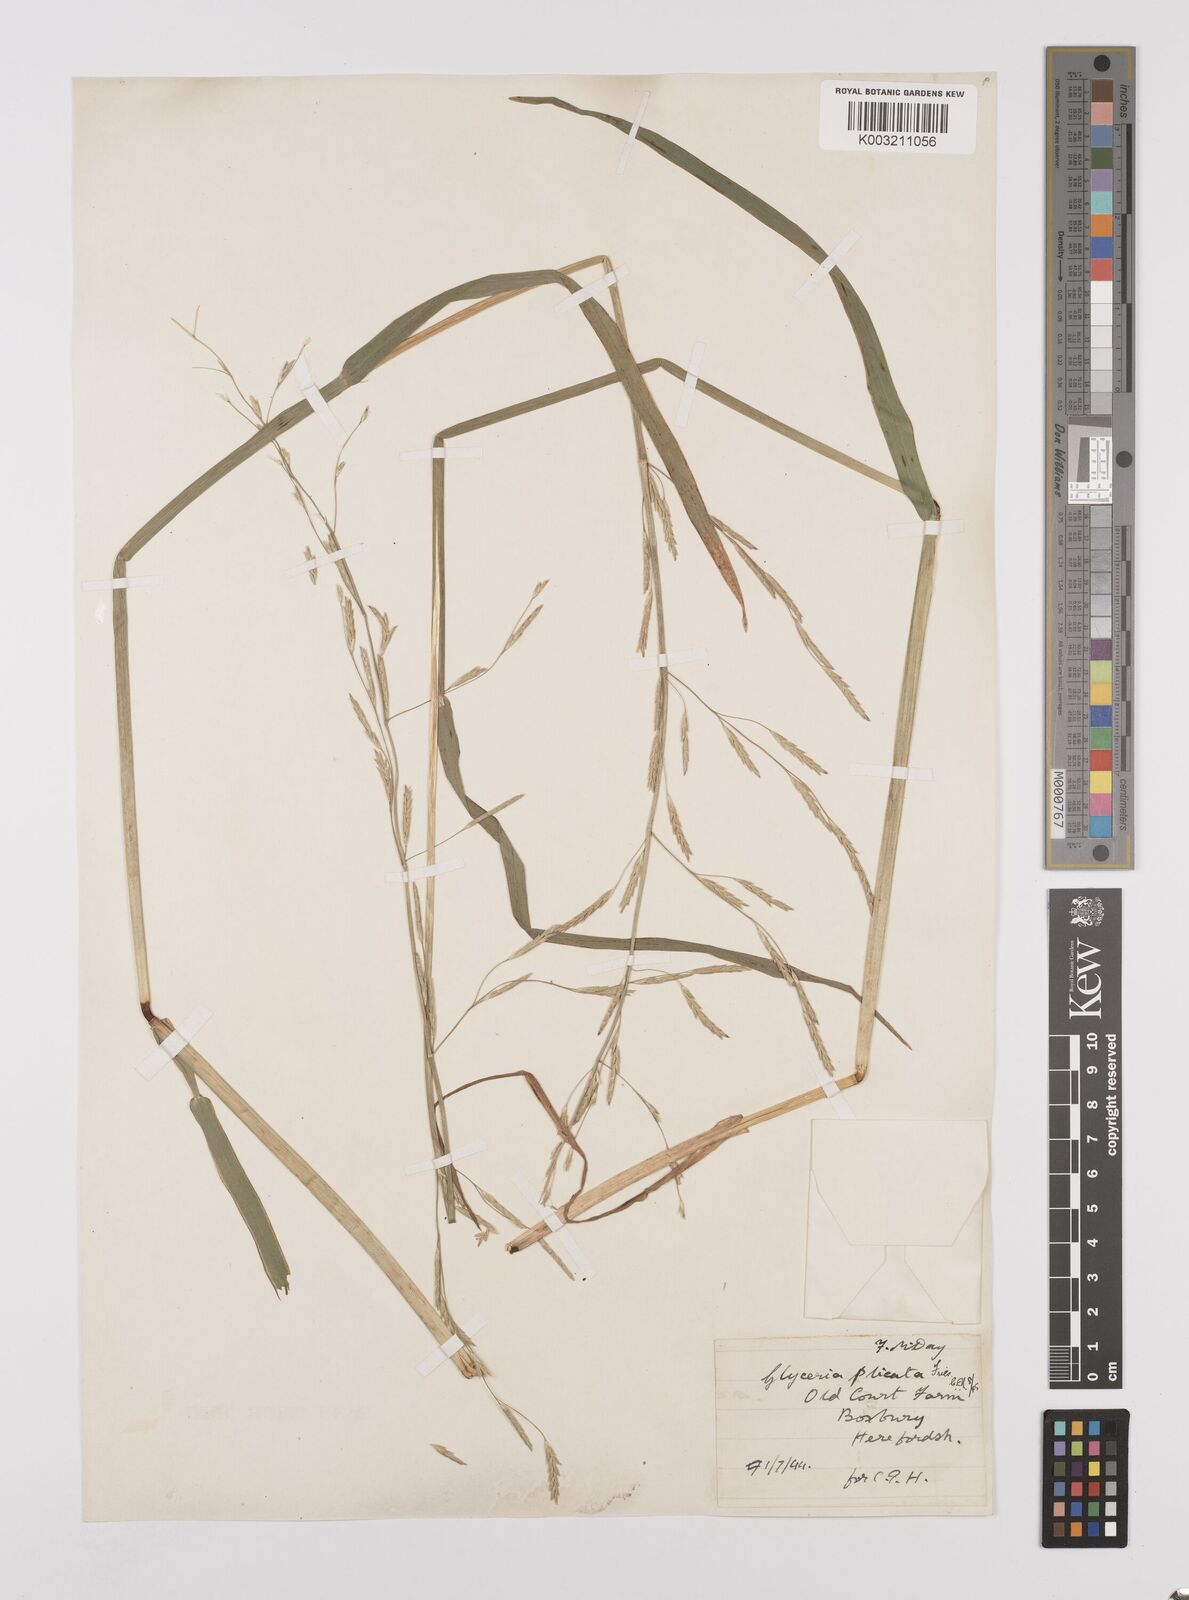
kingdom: Plantae
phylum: Tracheophyta
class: Liliopsida
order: Poales
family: Poaceae
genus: Glyceria
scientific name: Glyceria notata
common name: Plicate sweet-grass
